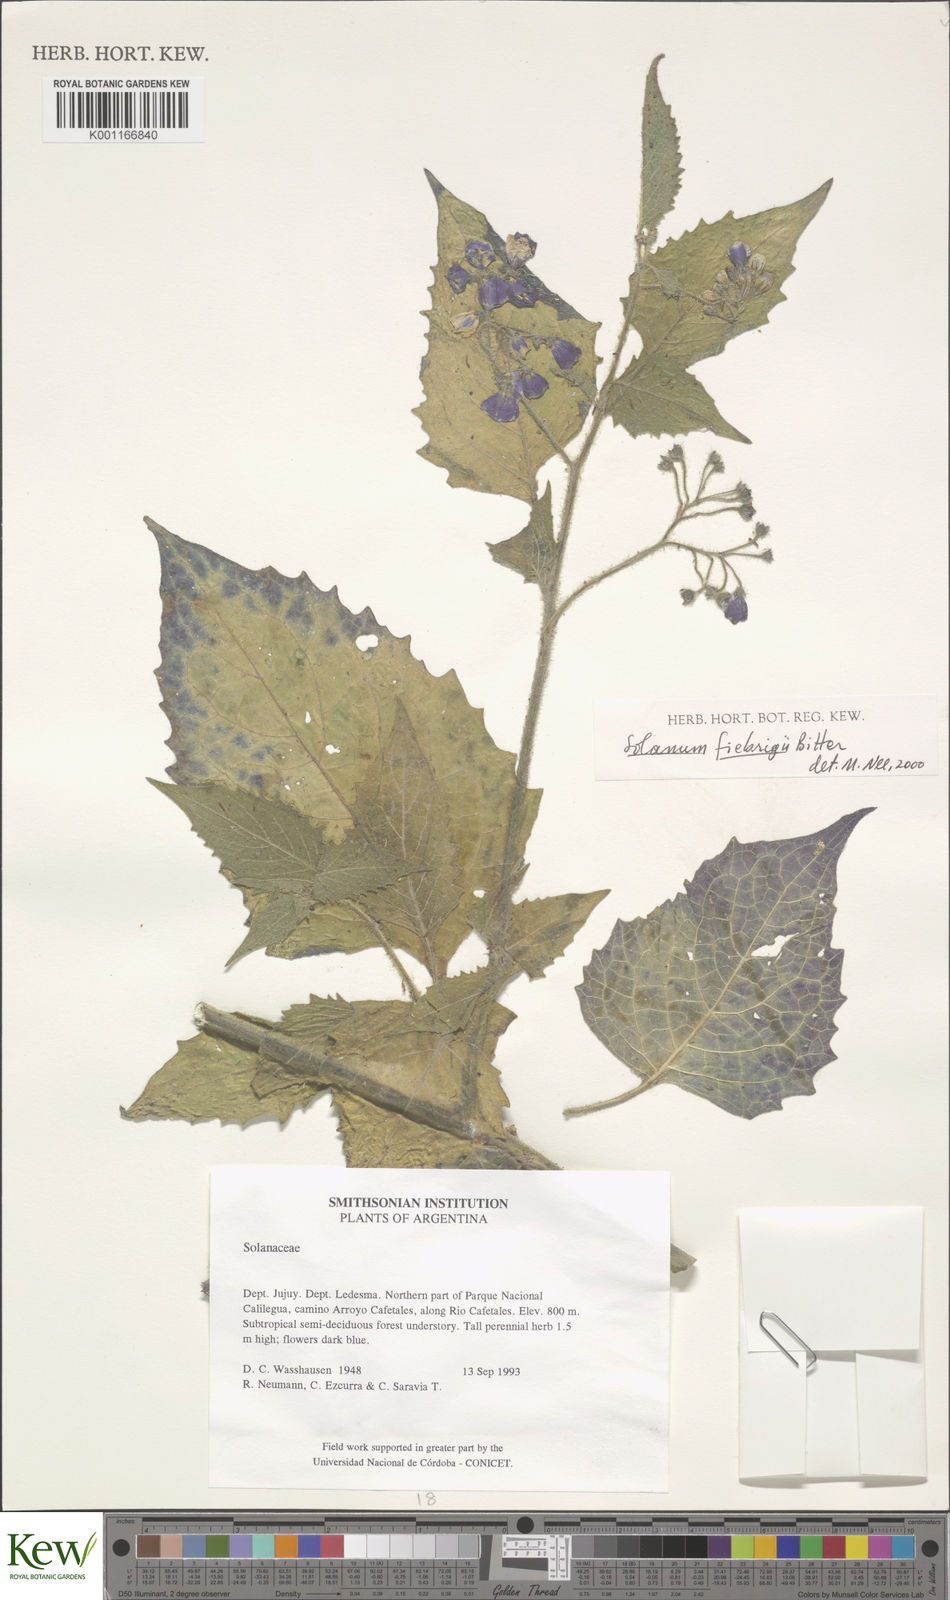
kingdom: Plantae
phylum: Tracheophyta
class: Magnoliopsida
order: Solanales
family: Solanaceae
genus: Solanum
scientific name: Solanum fiebrigii
